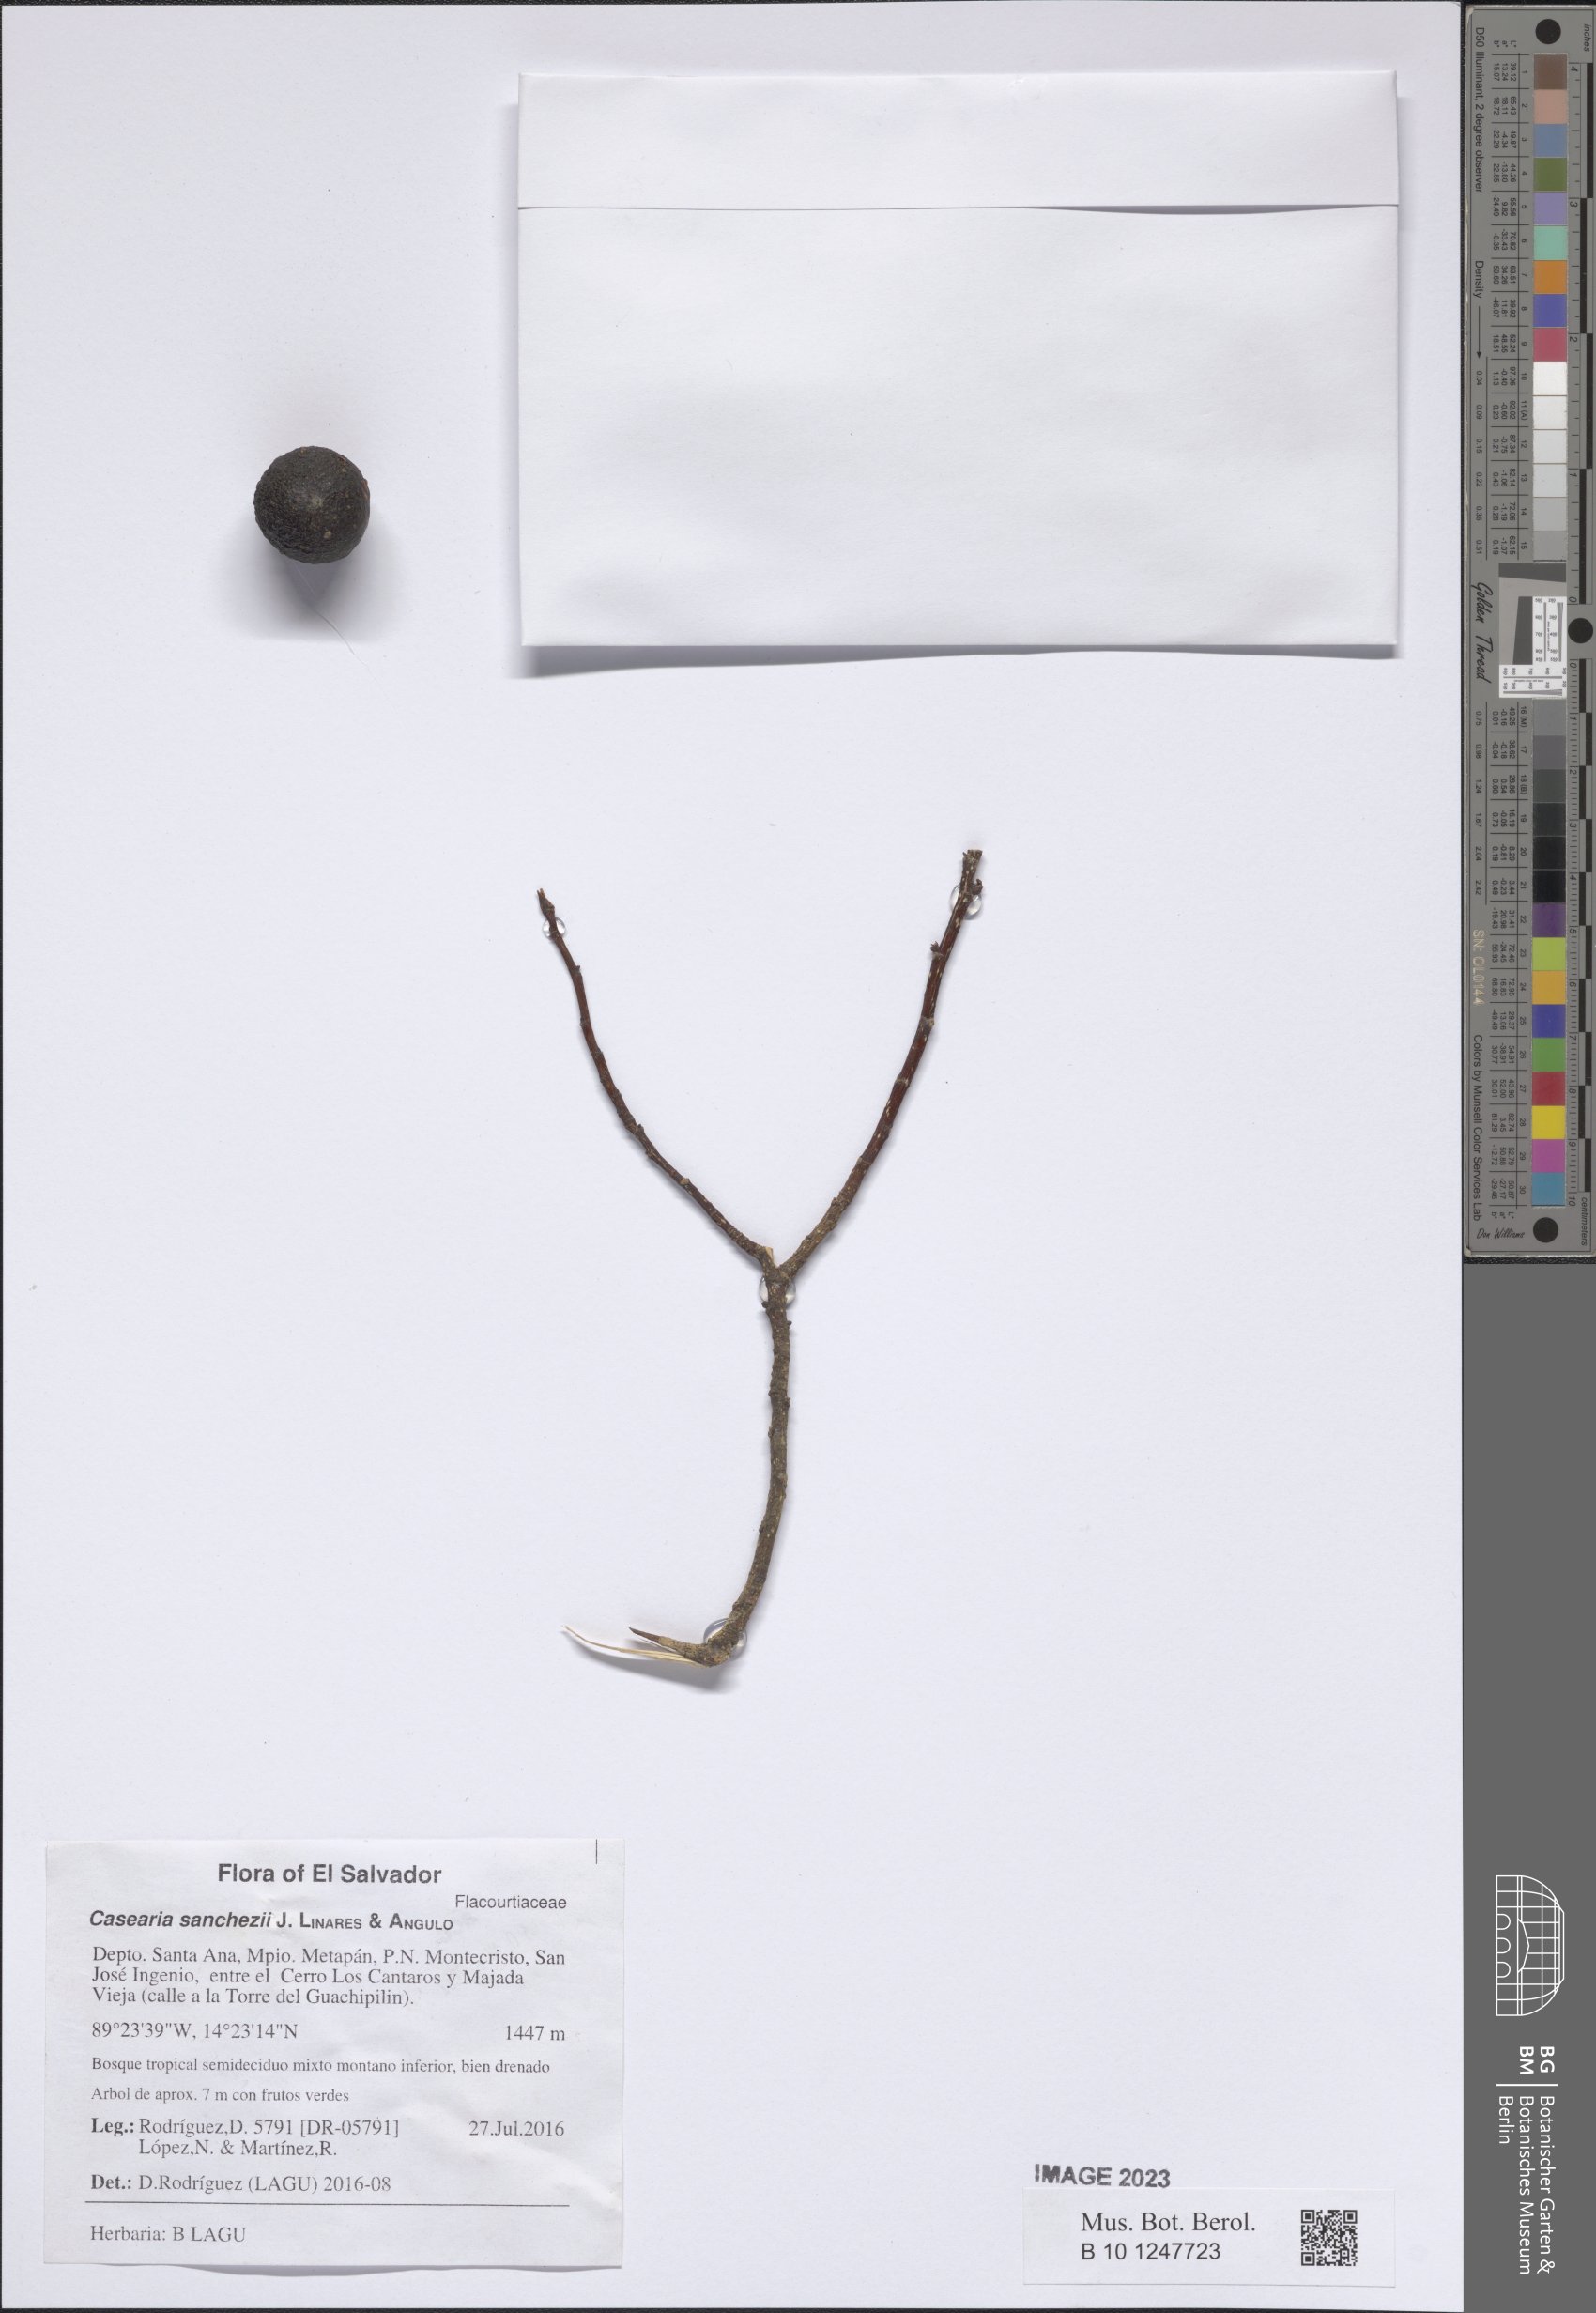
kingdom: Plantae
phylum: Tracheophyta
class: Magnoliopsida
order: Malpighiales
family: Salicaceae
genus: Casearia
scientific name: Casearia sanchezii
